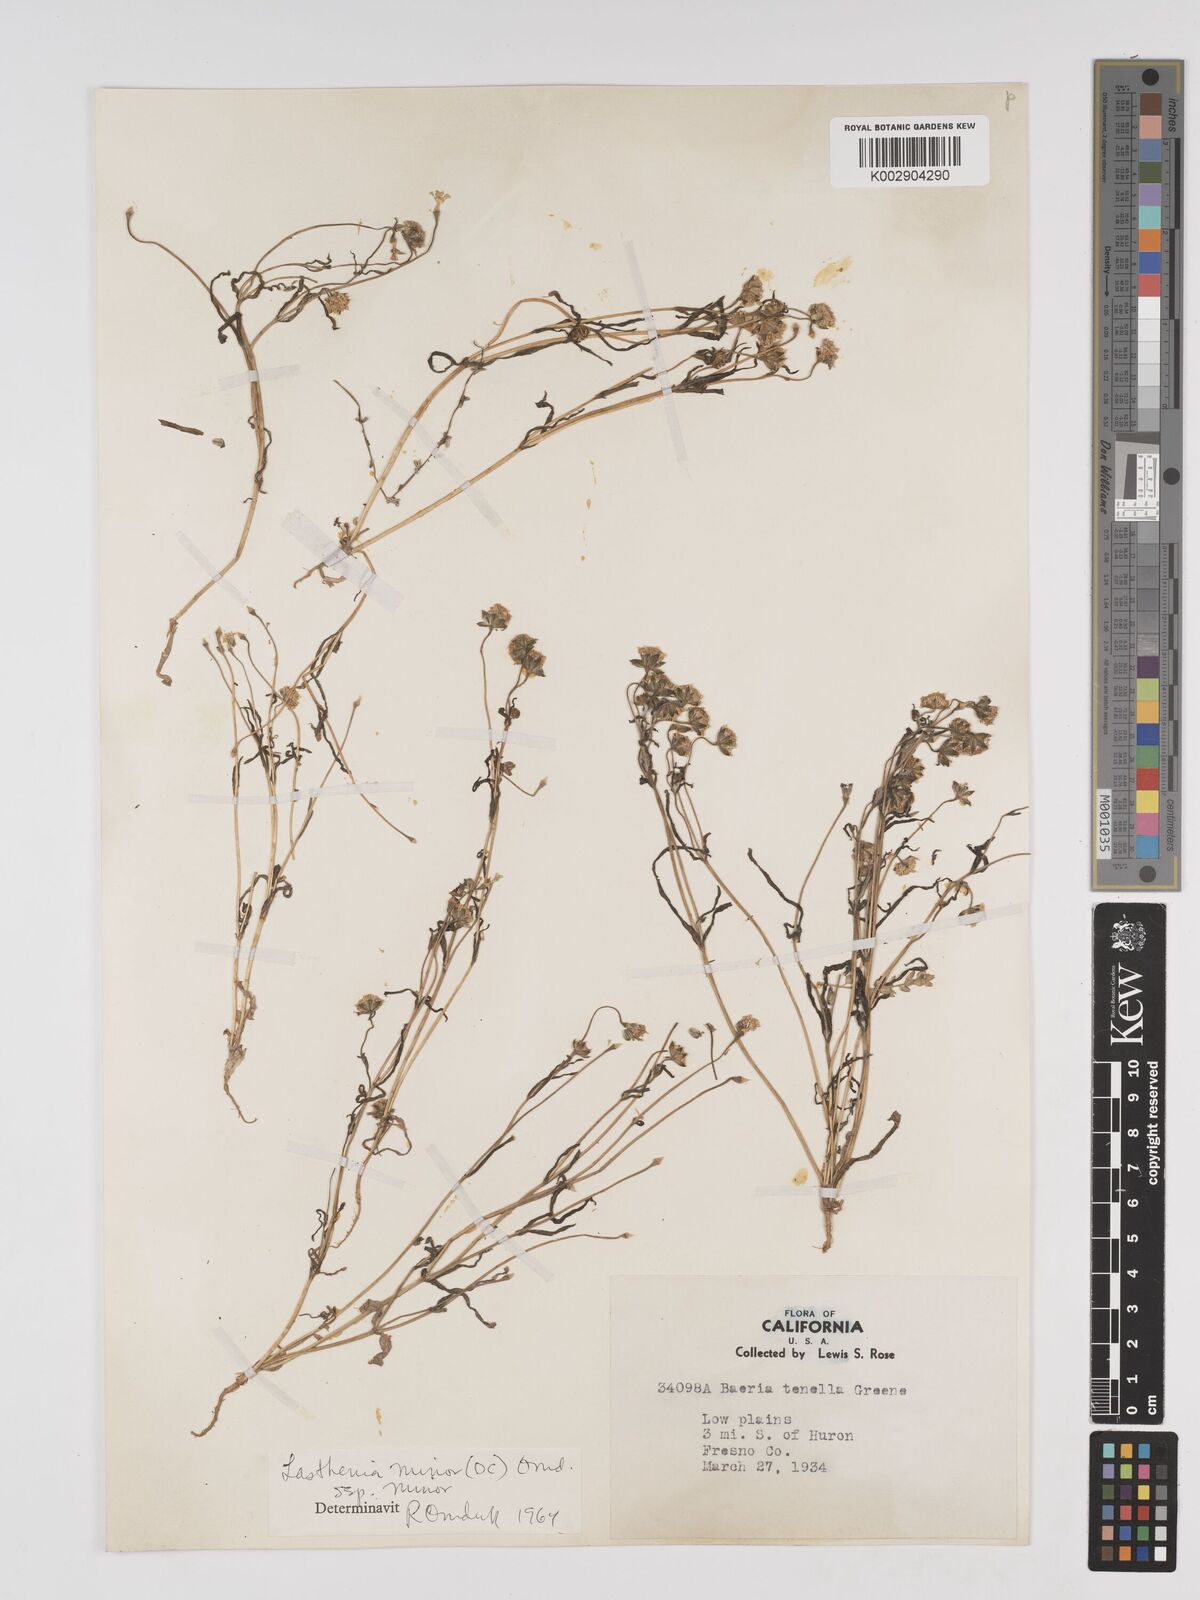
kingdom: Plantae
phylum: Tracheophyta
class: Magnoliopsida
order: Asterales
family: Asteraceae
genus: Lasthenia
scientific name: Lasthenia minor
